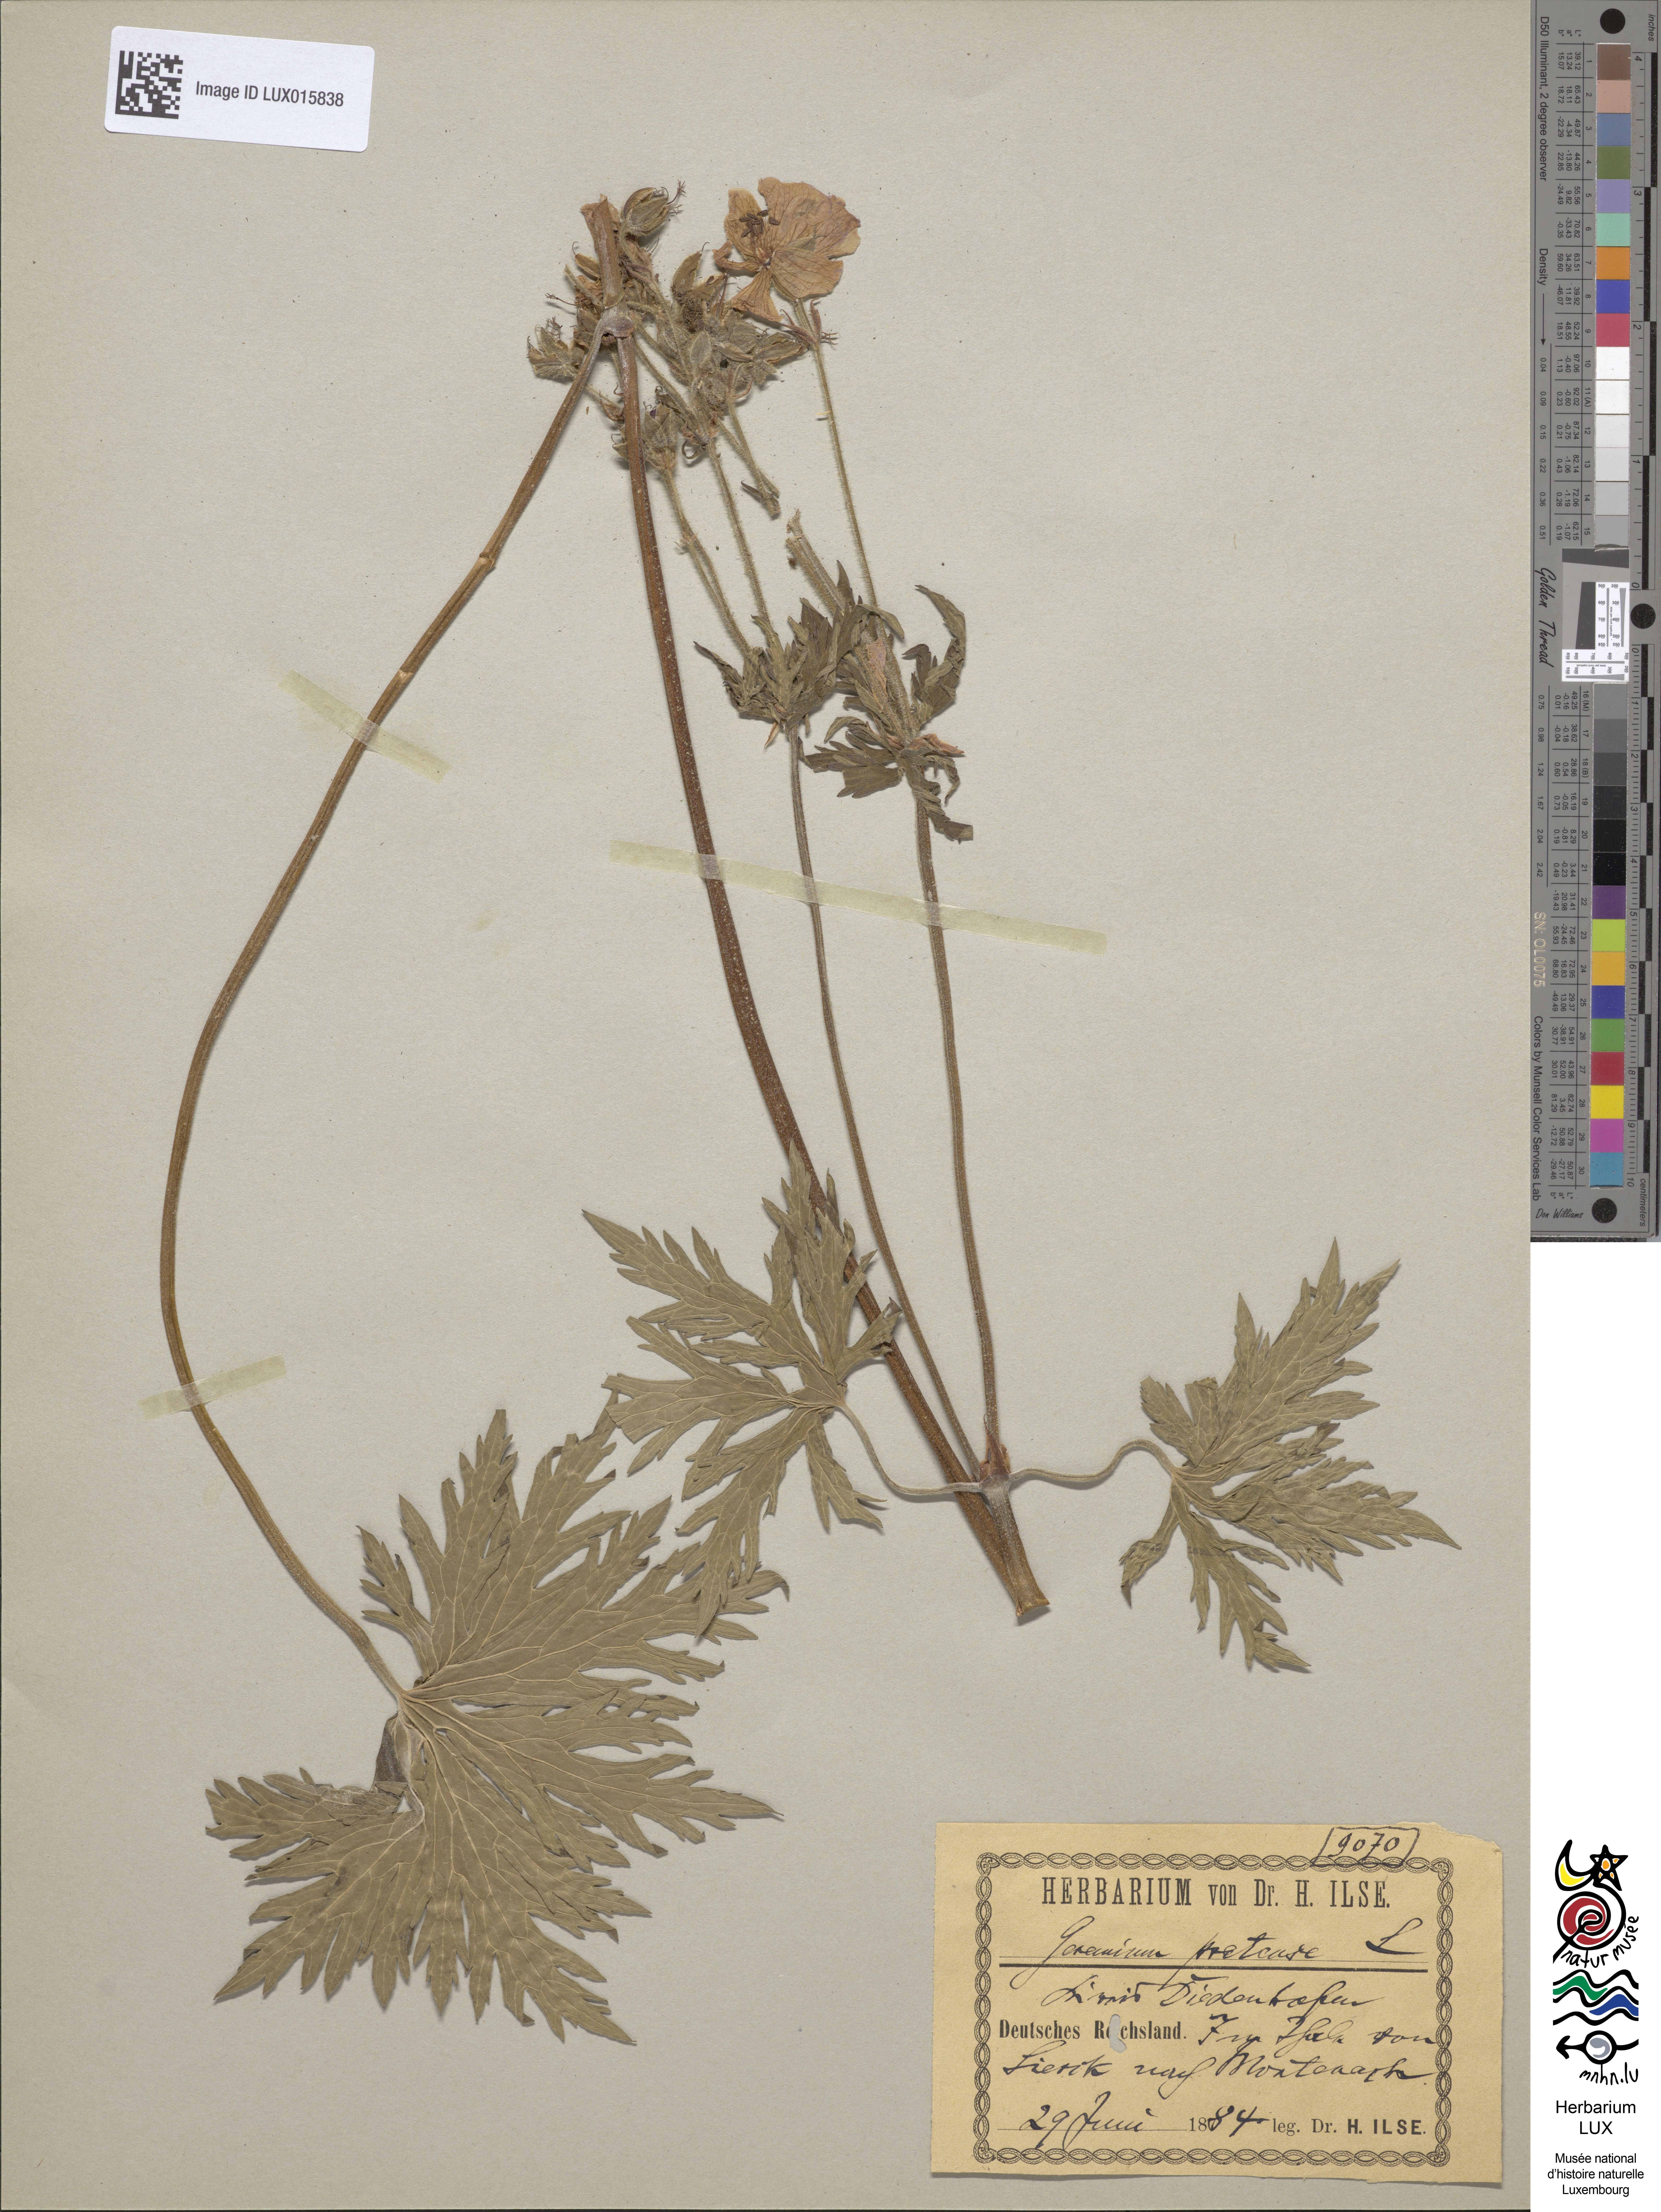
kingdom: Plantae
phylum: Tracheophyta
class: Magnoliopsida
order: Geraniales
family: Geraniaceae
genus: Geranium
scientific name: Geranium pratense
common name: Meadow crane's-bill
